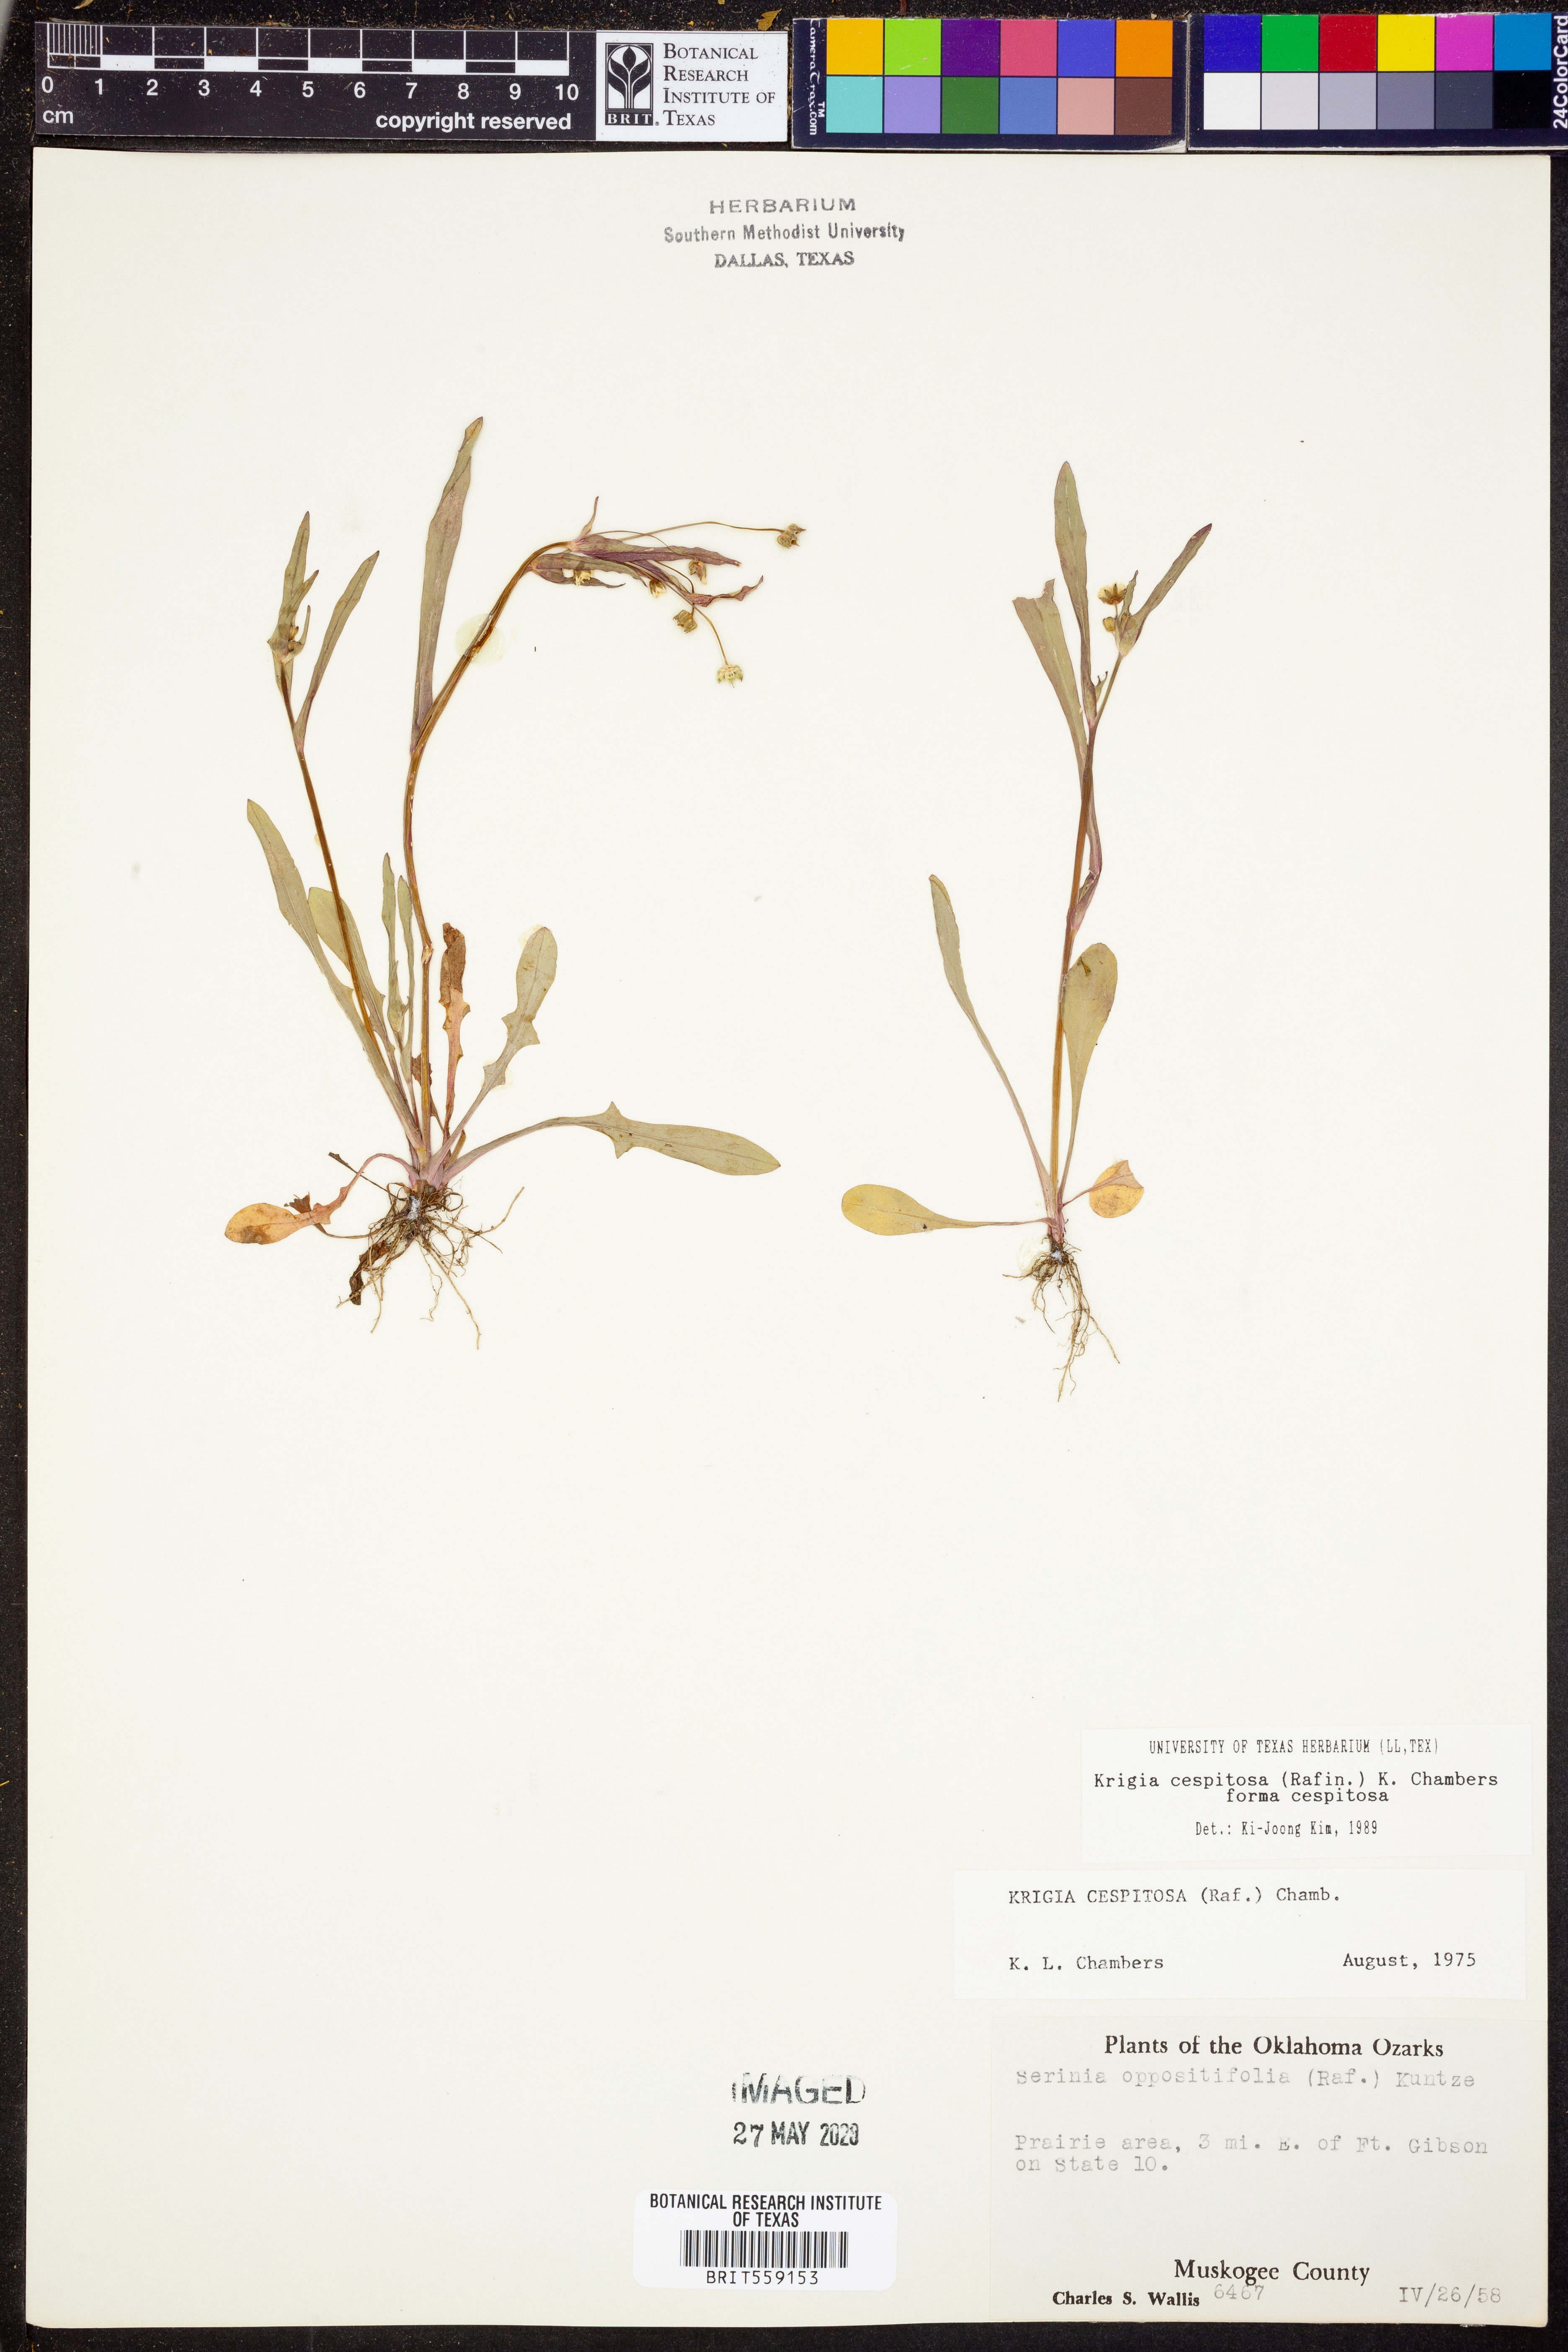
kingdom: Plantae
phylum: Tracheophyta
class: Magnoliopsida
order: Asterales
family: Asteraceae
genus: Krigia
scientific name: Krigia cespitosa
